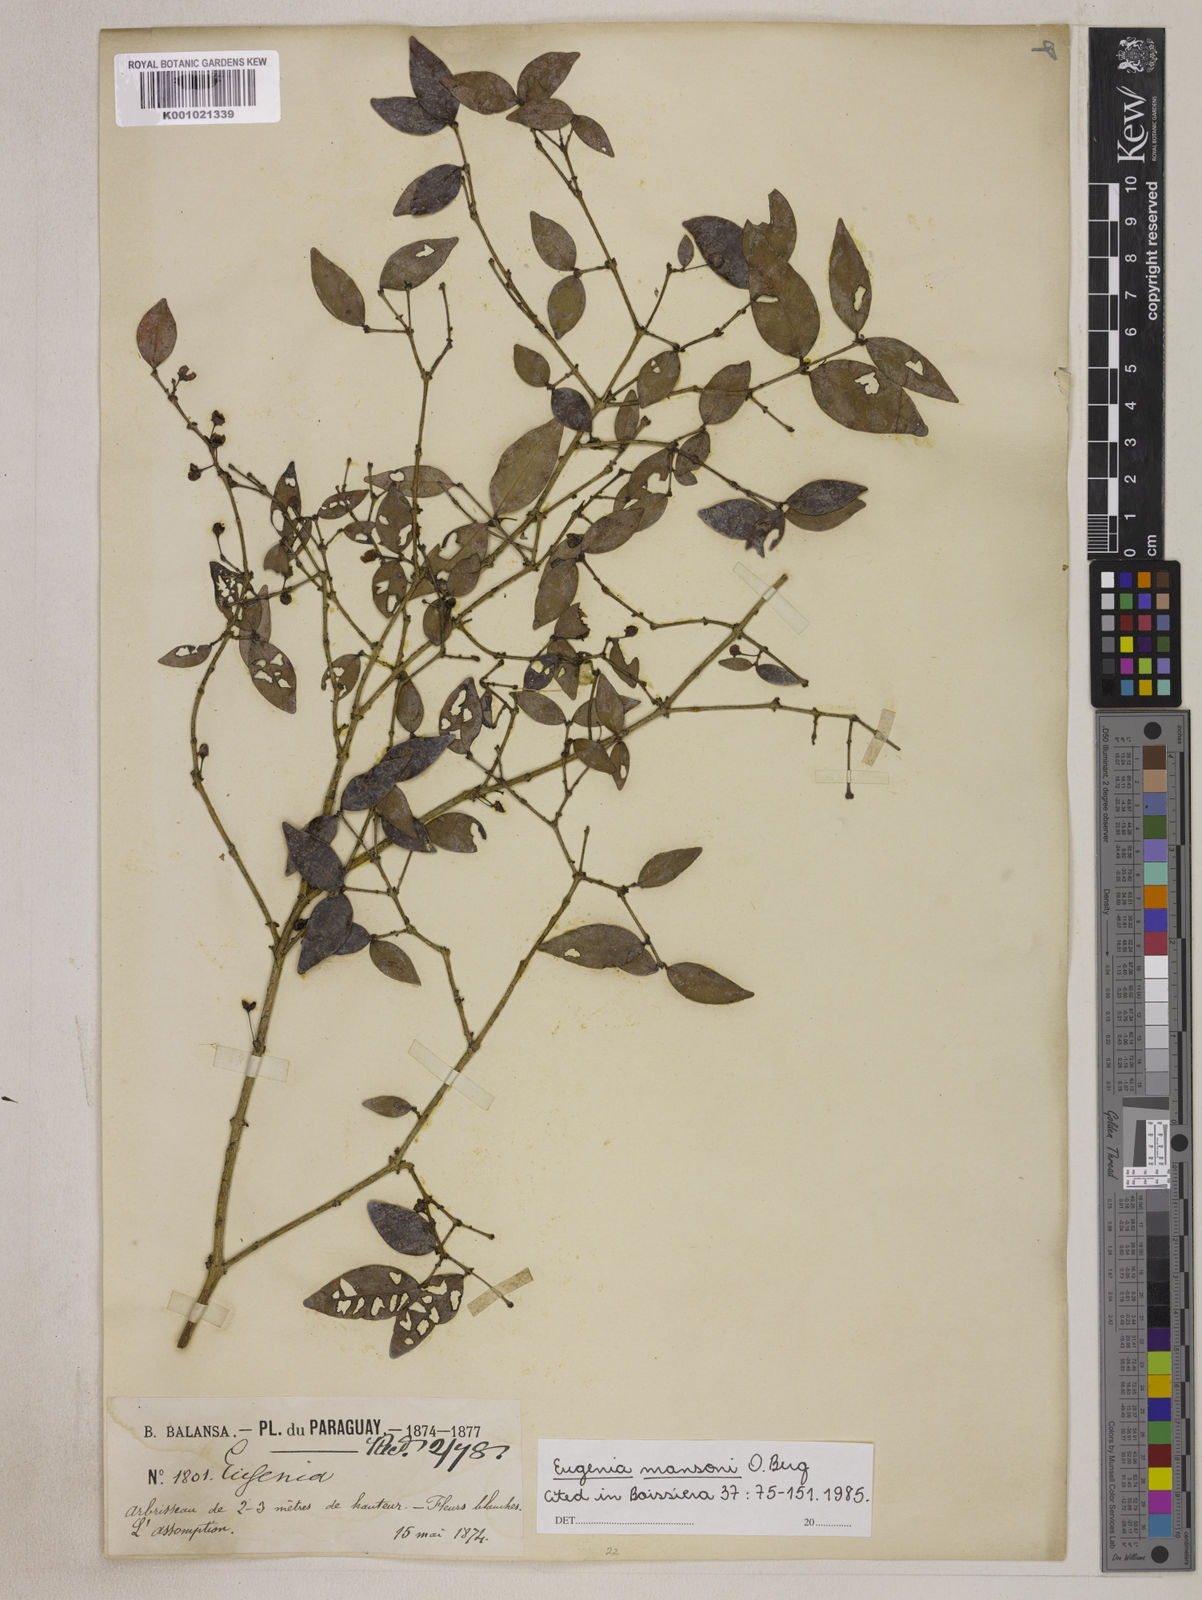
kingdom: Plantae
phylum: Tracheophyta
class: Magnoliopsida
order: Myrtales
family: Myrtaceae
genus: Eugenia
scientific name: Eugenia mansoi
